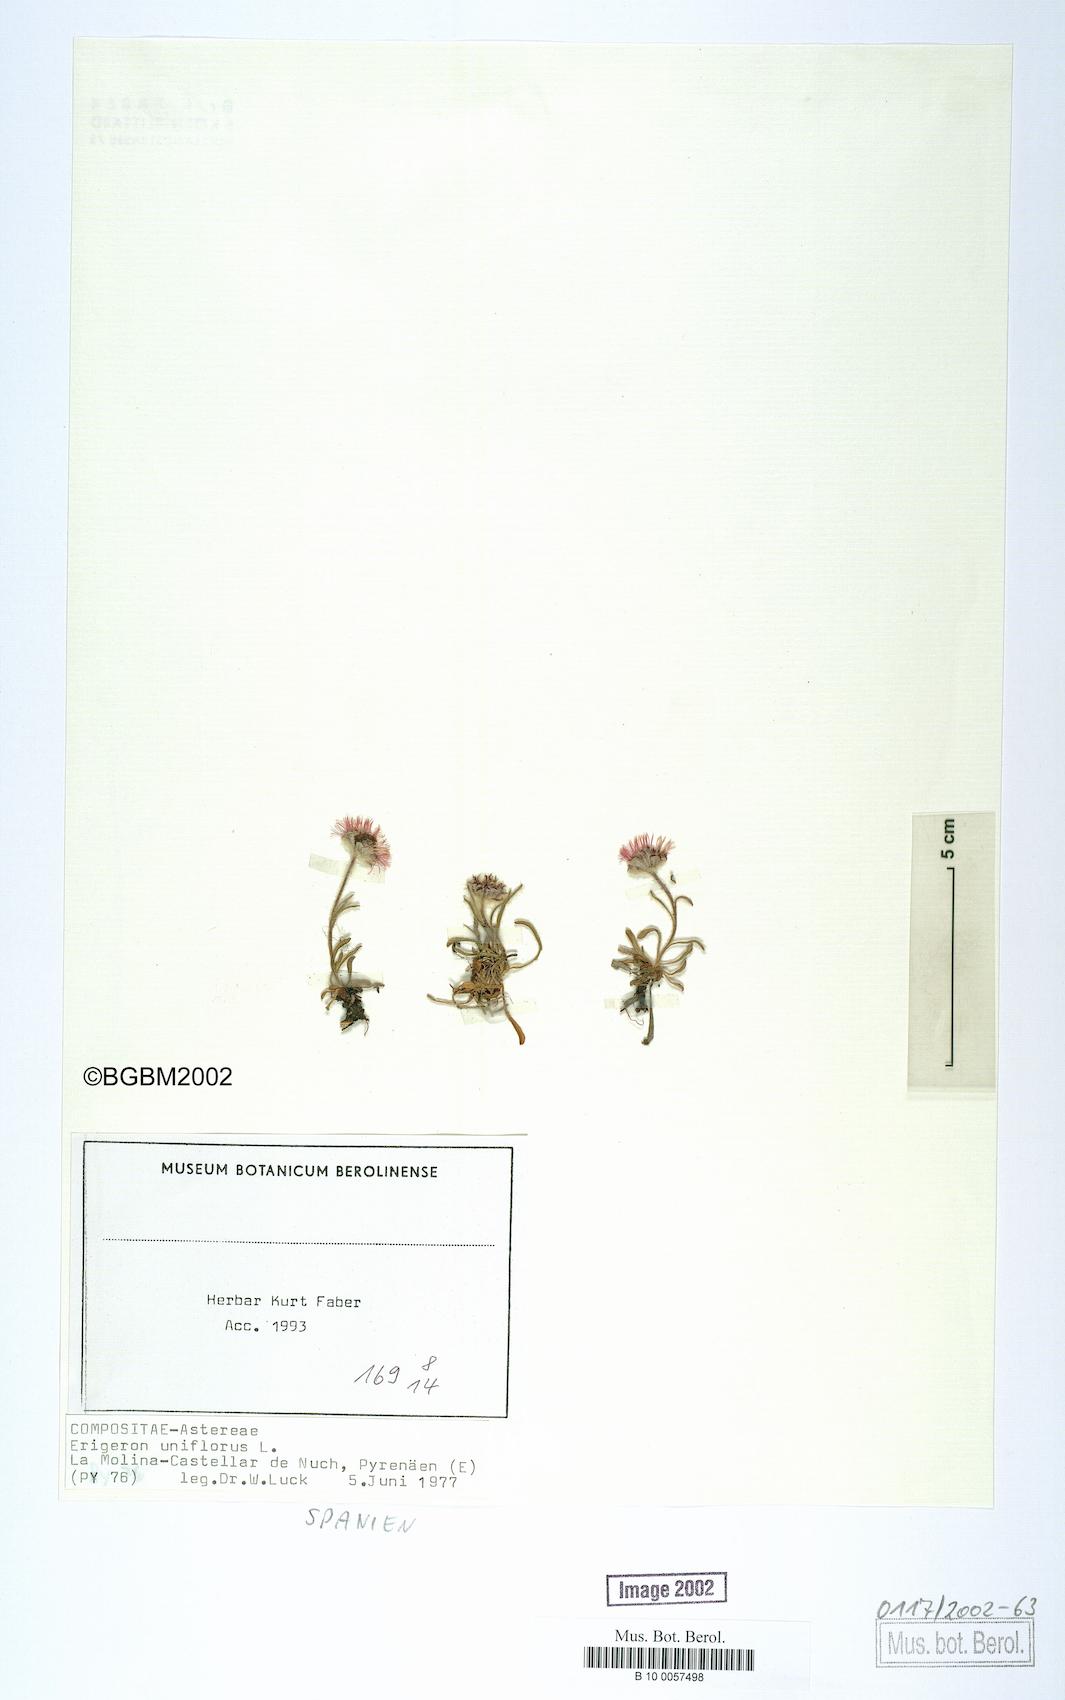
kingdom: Plantae
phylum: Tracheophyta
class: Magnoliopsida
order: Asterales
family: Asteraceae
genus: Erigeron
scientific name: Erigeron uniflorus
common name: Northern daisy
